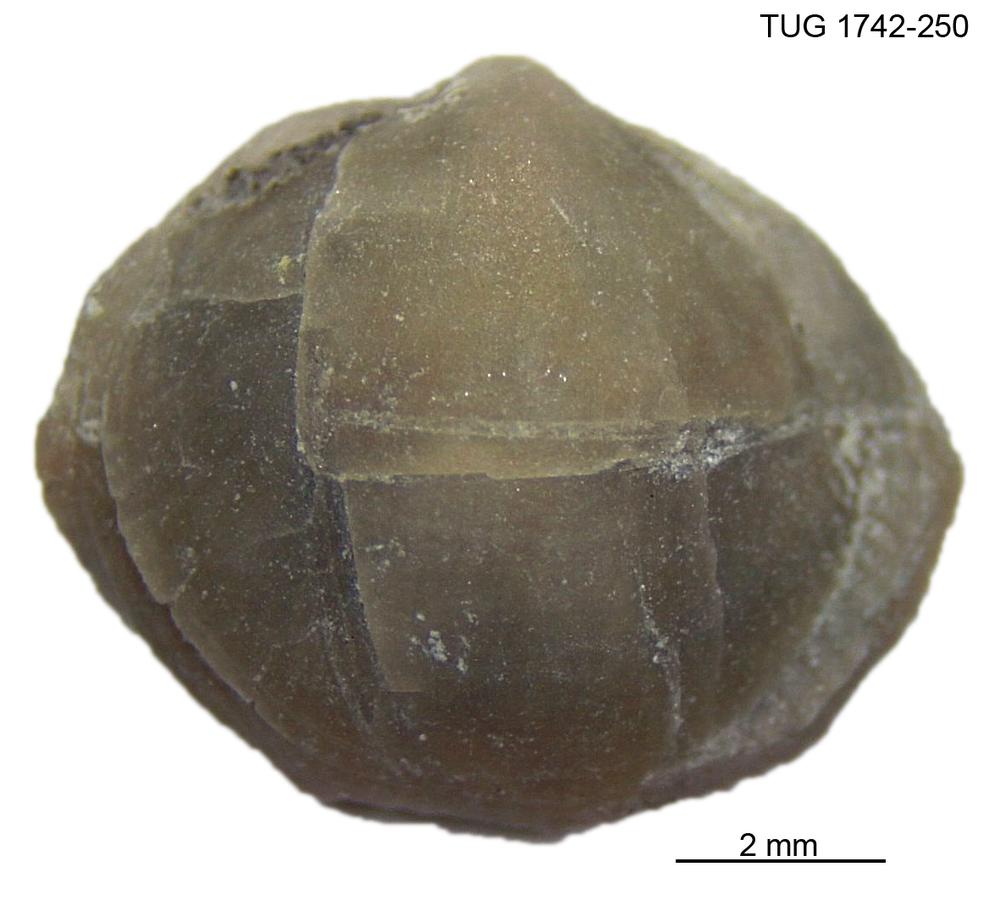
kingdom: Animalia
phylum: Brachiopoda
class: Rhynchonellata
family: Anazygidae
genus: Pentlandella
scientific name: Pentlandella
